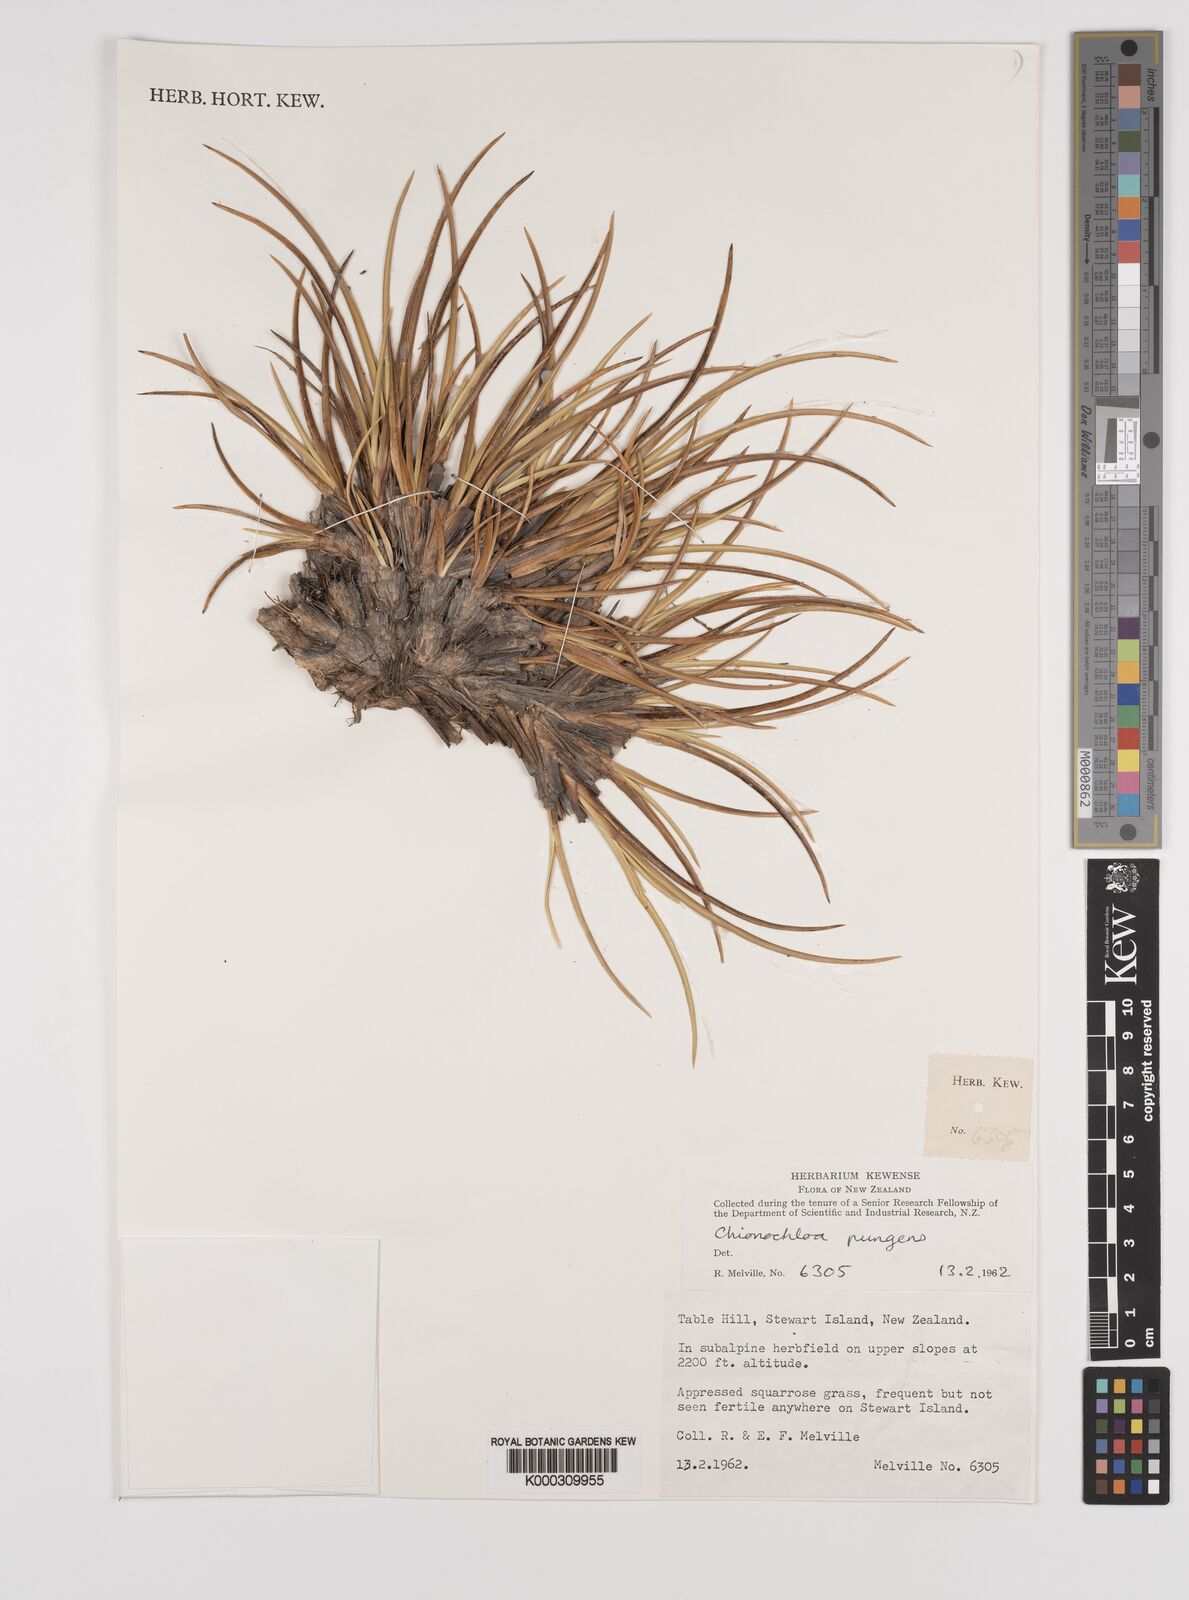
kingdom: Plantae
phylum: Tracheophyta
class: Liliopsida
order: Poales
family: Poaceae
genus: Chionochloa
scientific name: Chionochloa crassiuscula
